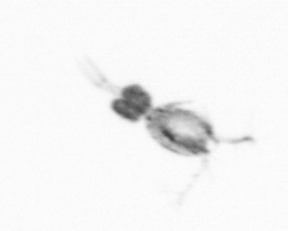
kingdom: Animalia
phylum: Arthropoda
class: Copepoda
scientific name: Copepoda
